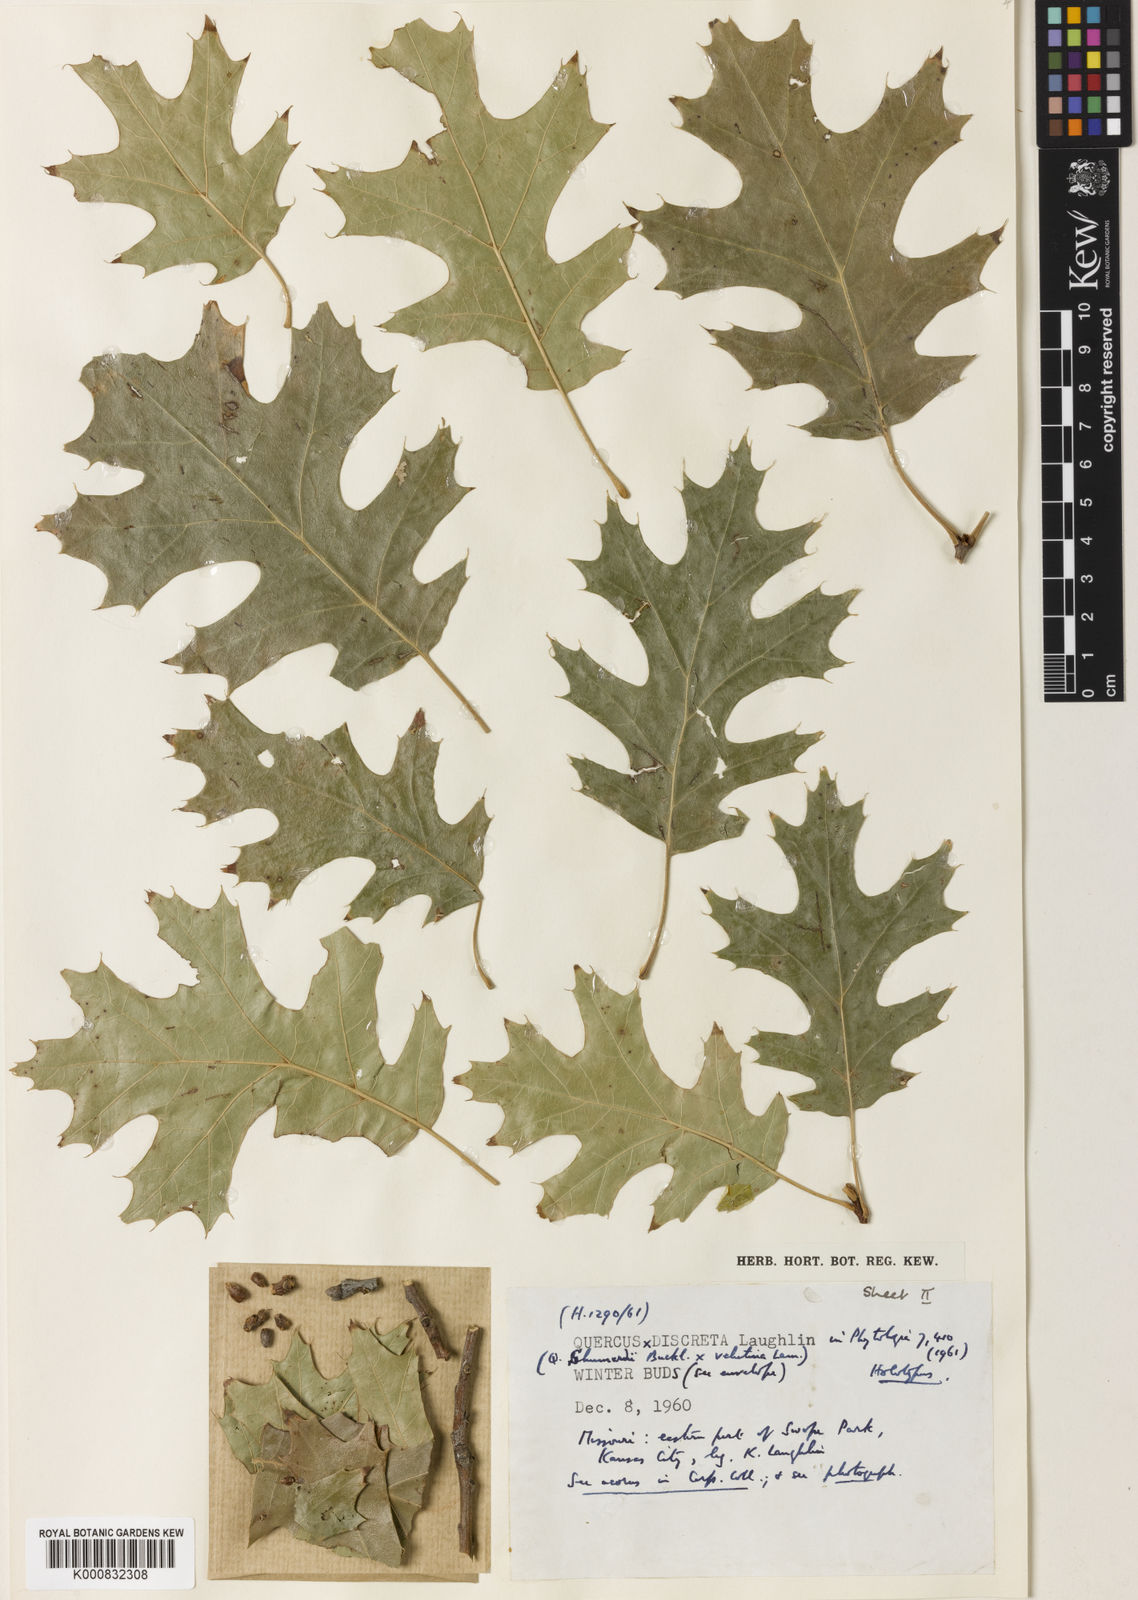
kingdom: Plantae
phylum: Tracheophyta
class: Magnoliopsida
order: Fagales
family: Fagaceae
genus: Quercus
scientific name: Quercus discreta
